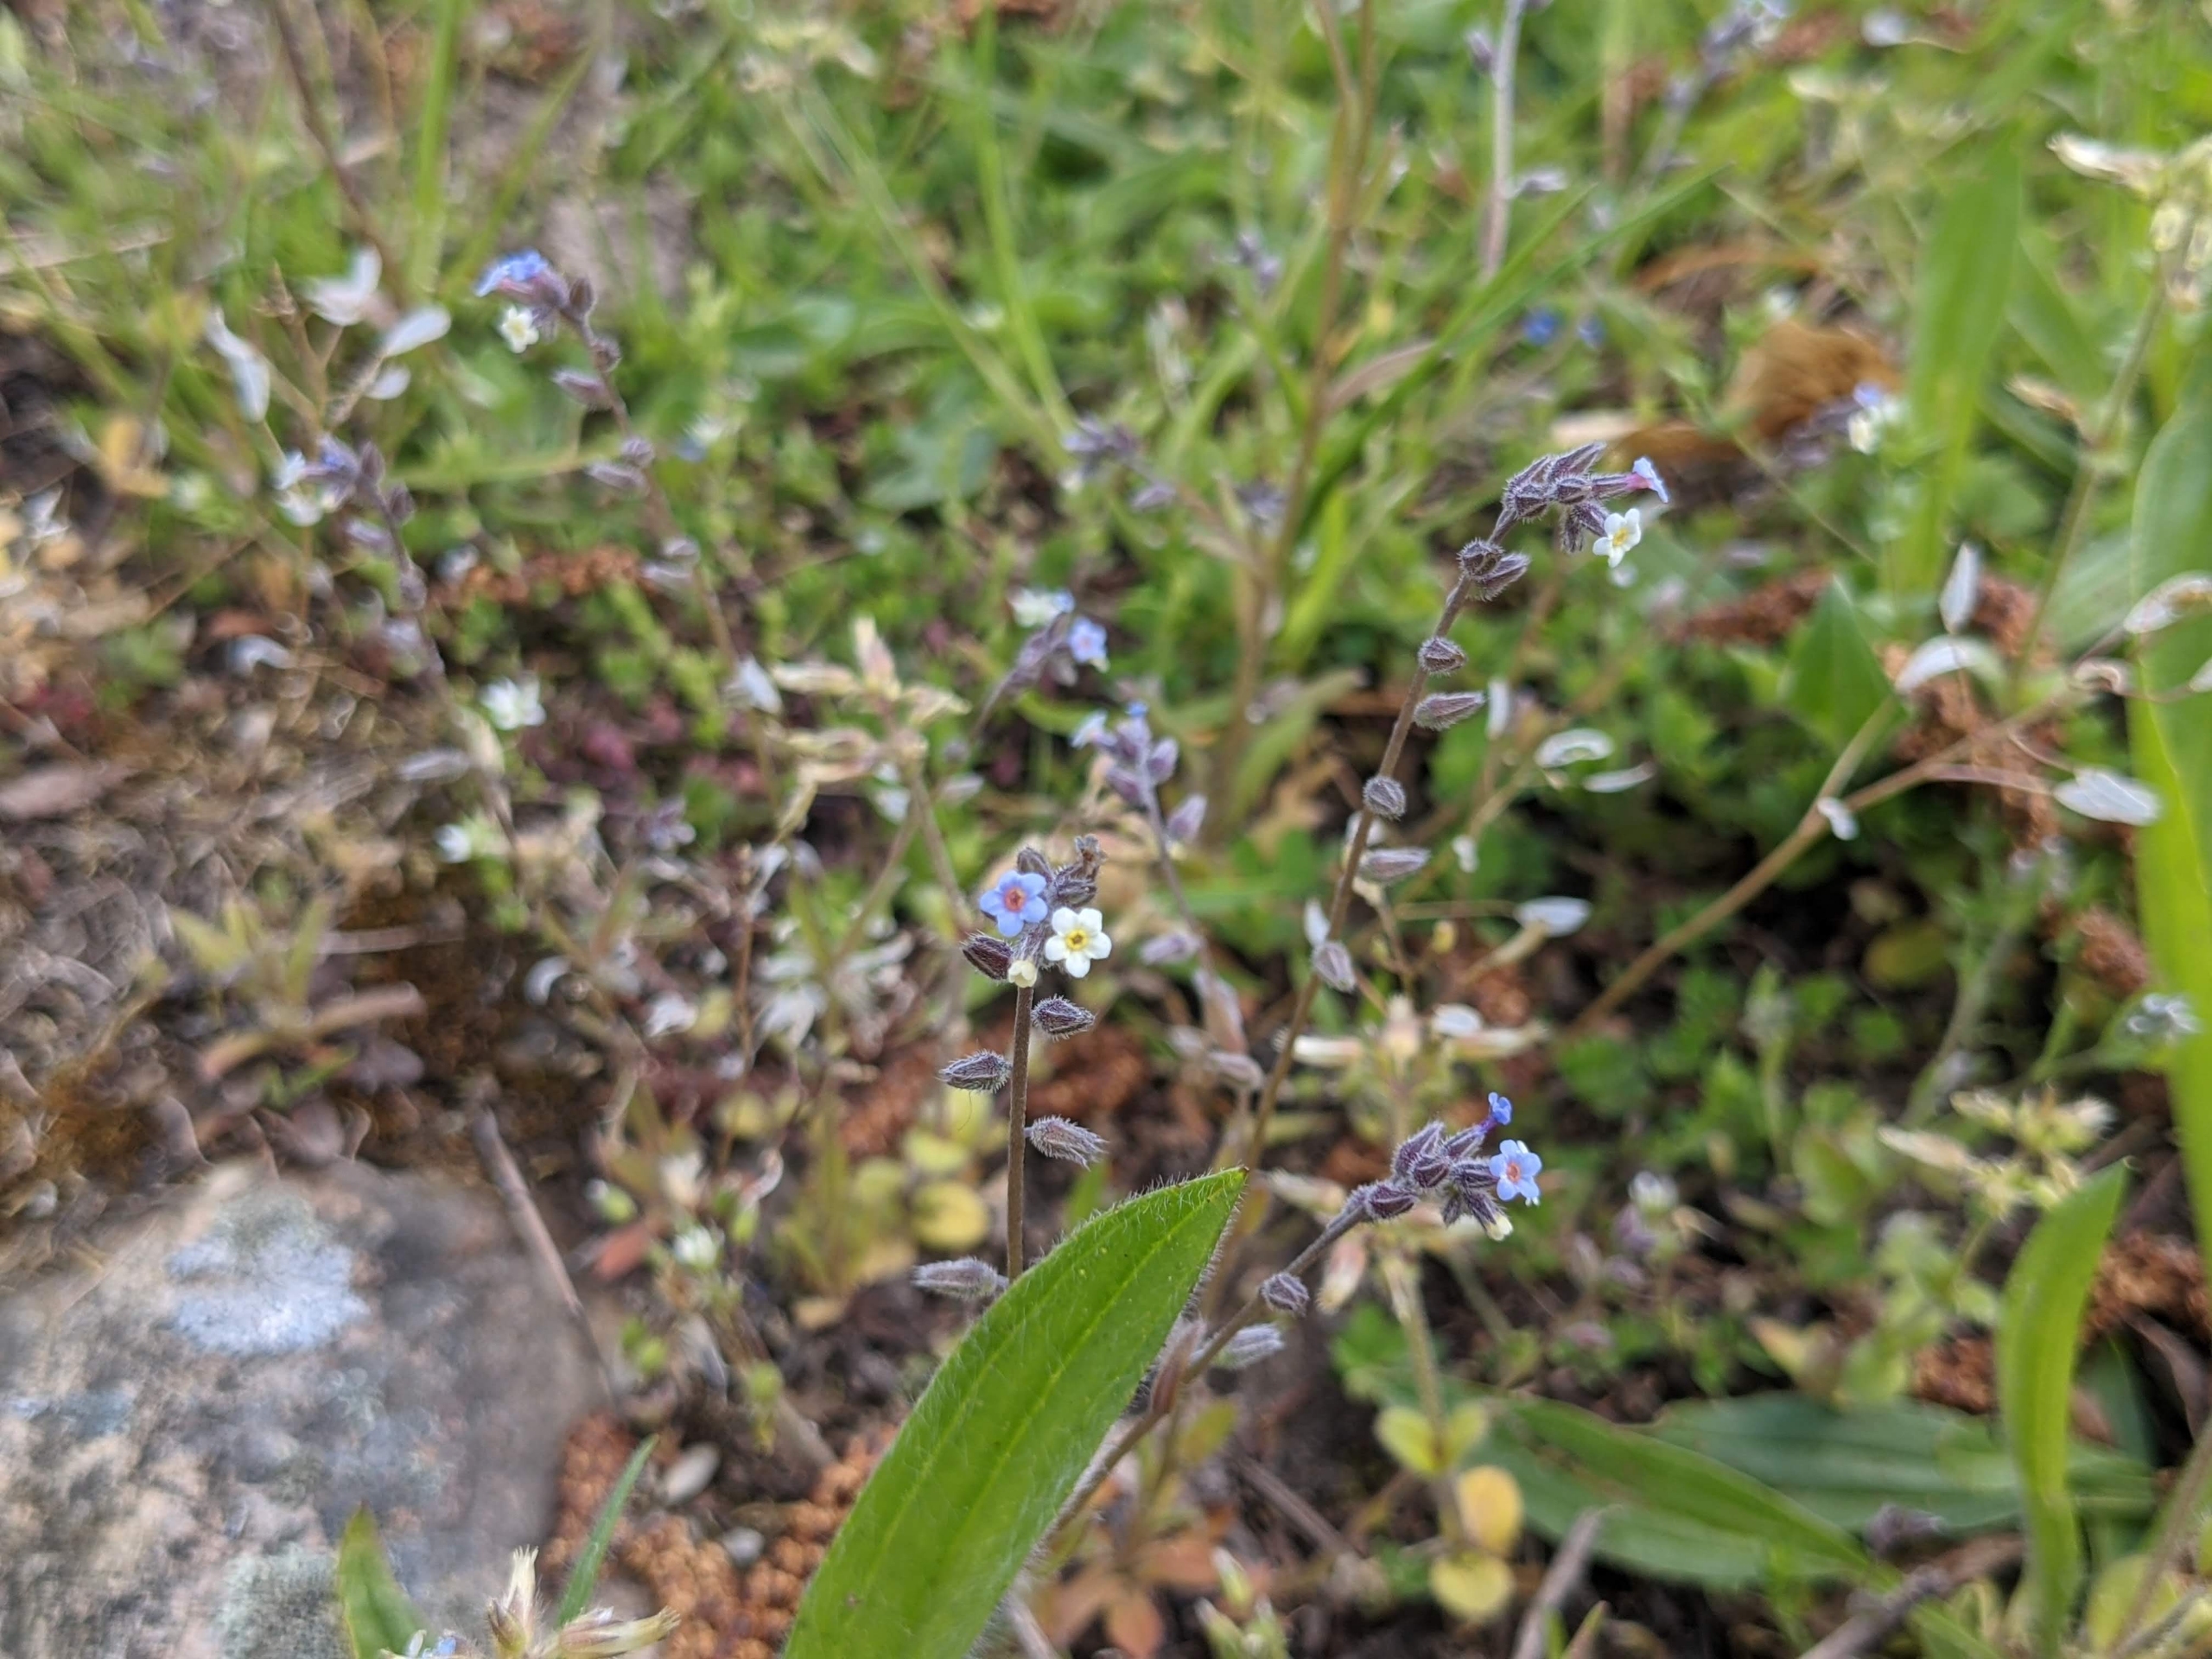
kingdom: Plantae
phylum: Tracheophyta
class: Magnoliopsida
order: Boraginales
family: Boraginaceae
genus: Myosotis
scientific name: Myosotis discolor
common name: Forskelligfarvet forglemmigej
